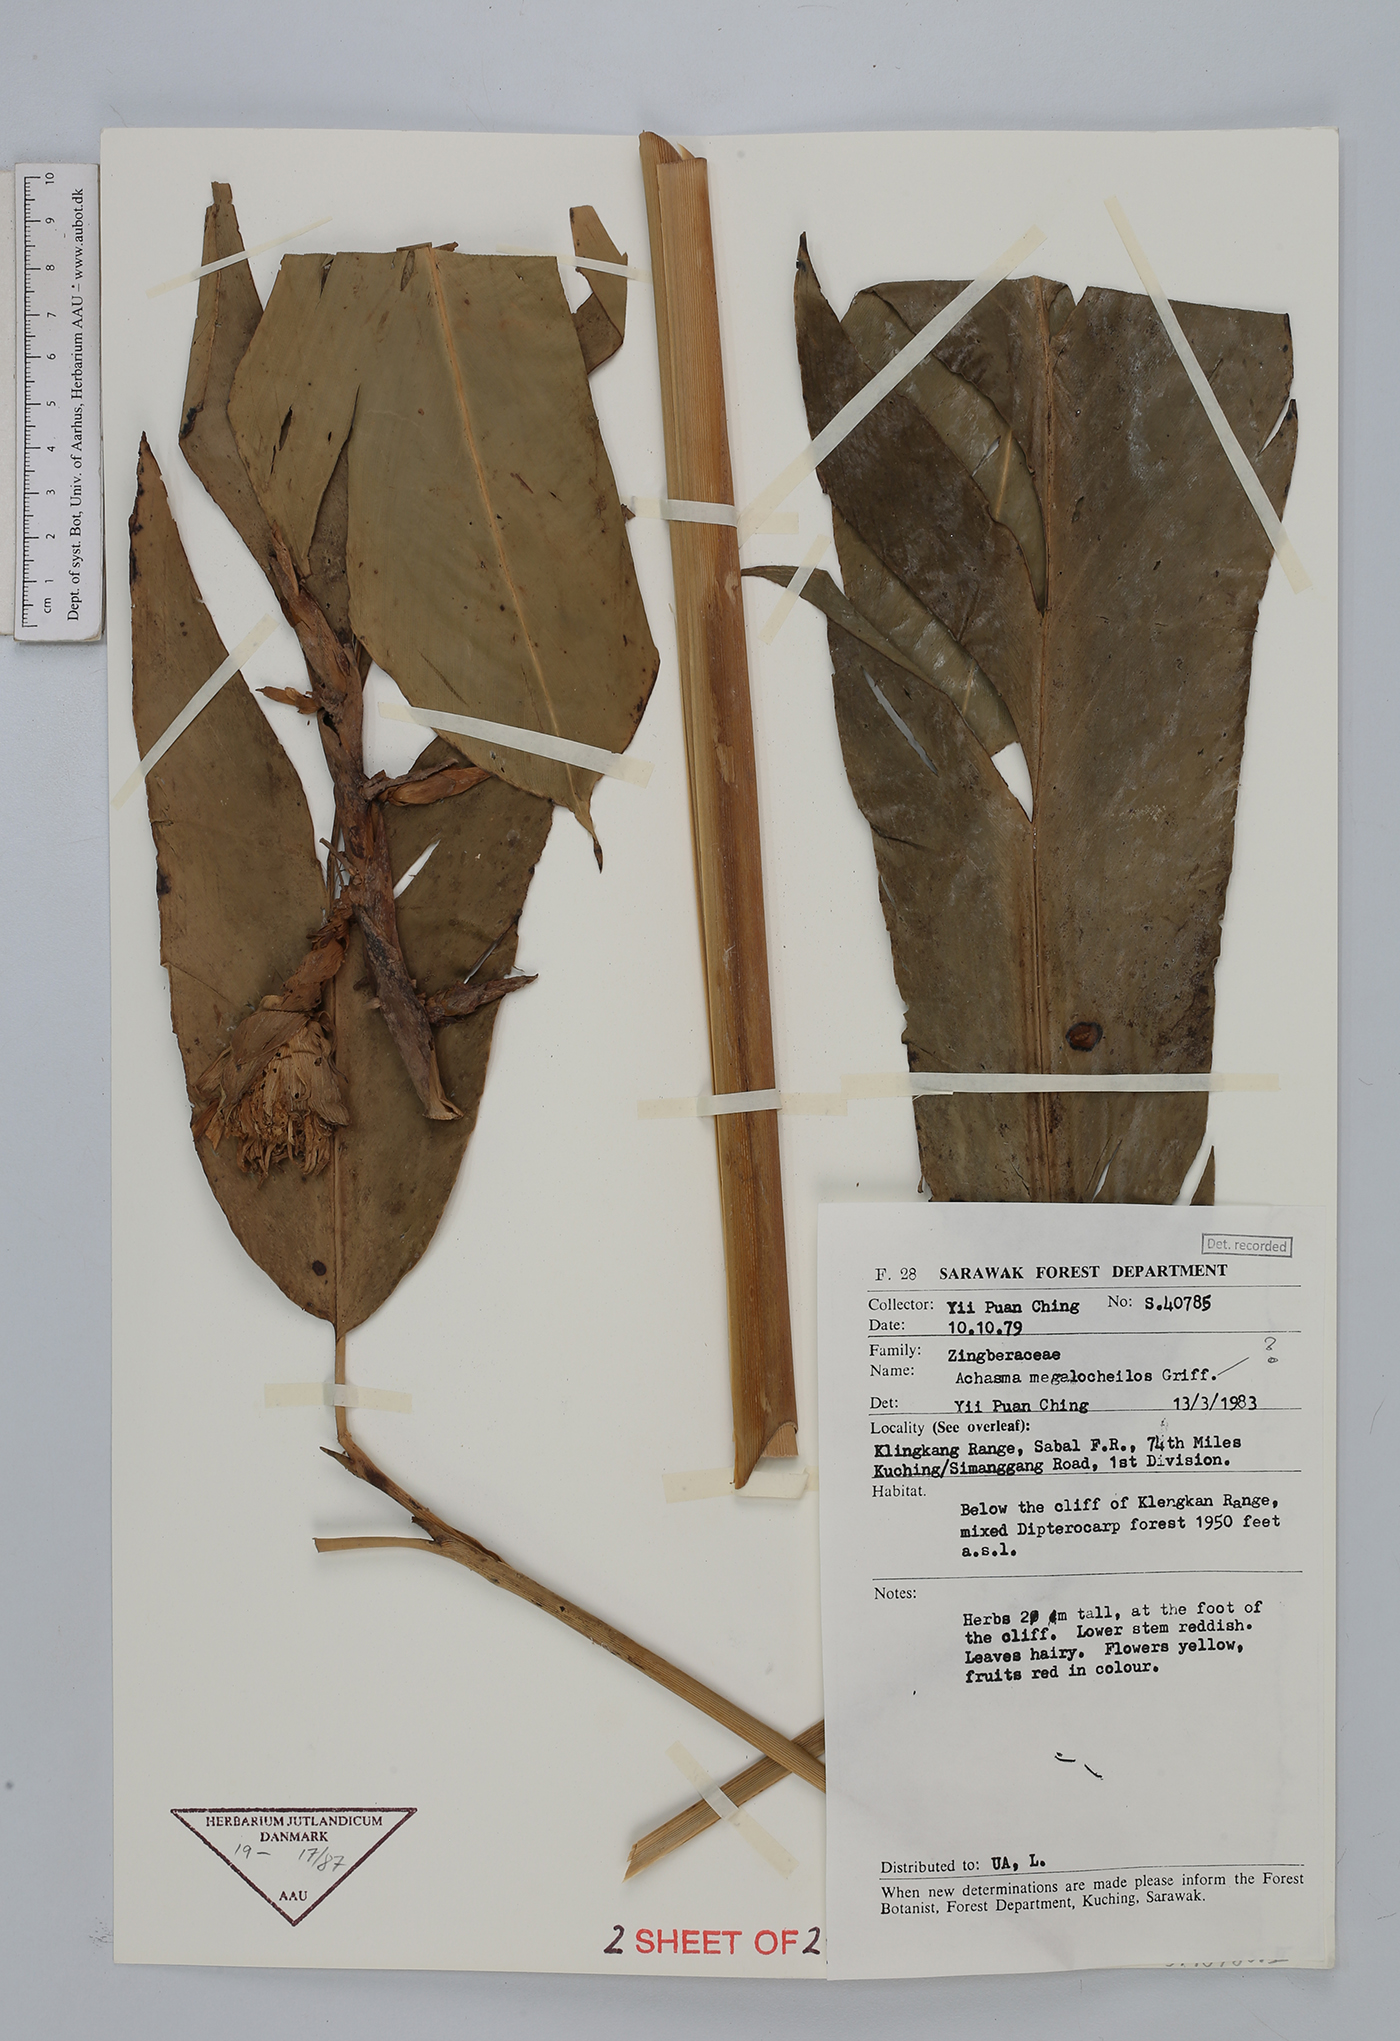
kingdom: Plantae
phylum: Tracheophyta
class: Liliopsida
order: Zingiberales
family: Zingiberaceae
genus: Etlingera
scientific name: Etlingera
